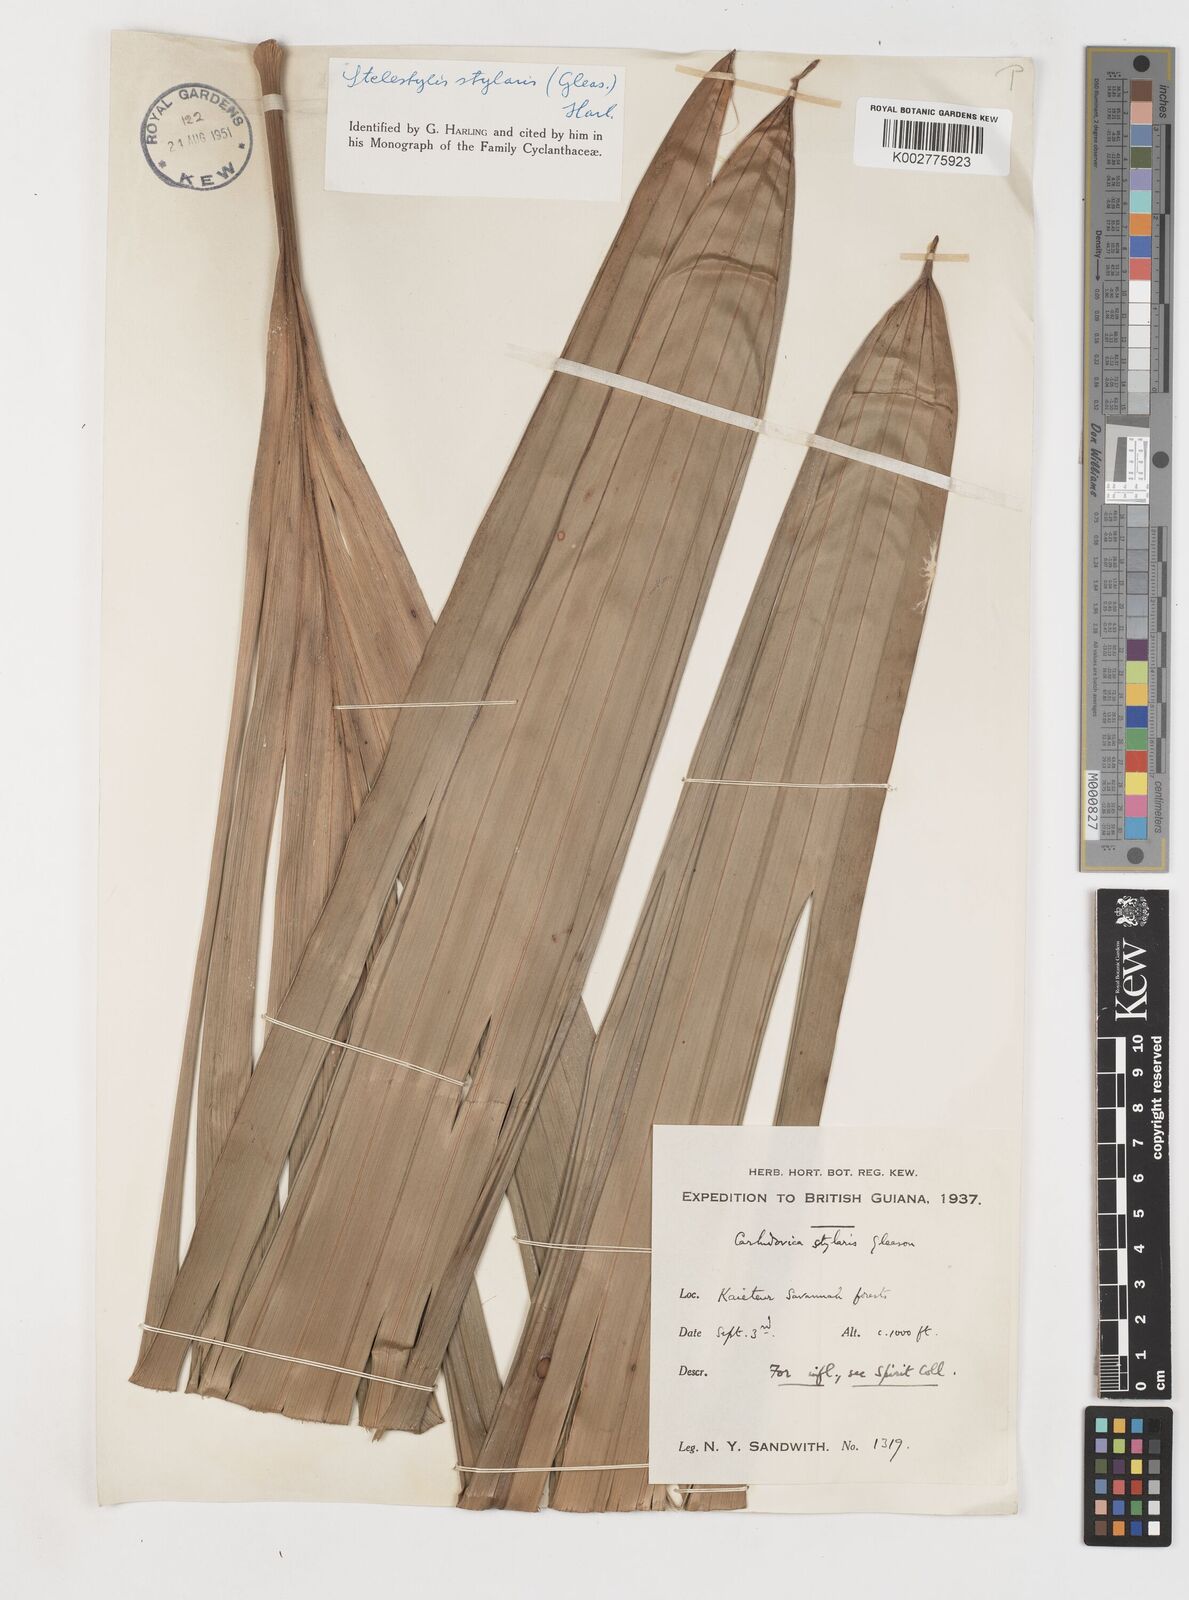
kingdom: Plantae
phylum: Tracheophyta
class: Liliopsida
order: Pandanales
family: Cyclanthaceae
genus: Stelestylis
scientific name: Stelestylis stylaris
